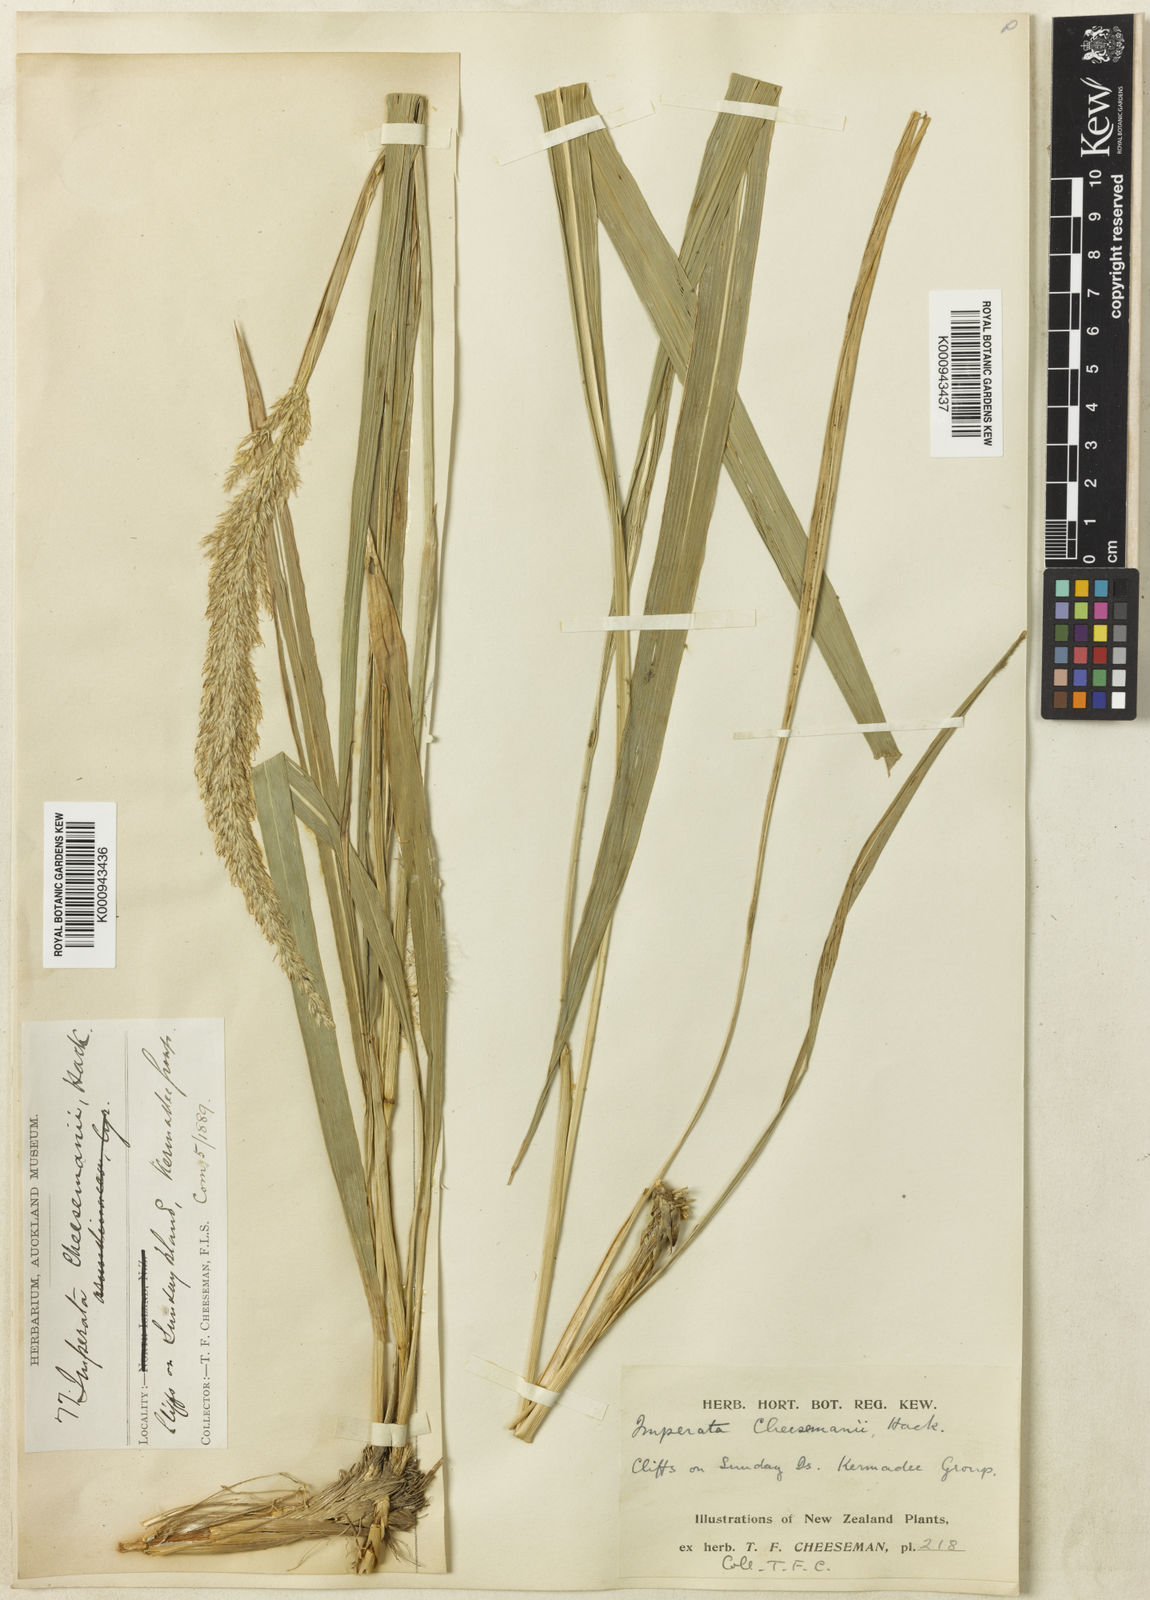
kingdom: Plantae
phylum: Tracheophyta
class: Liliopsida
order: Poales
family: Poaceae
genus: Imperata
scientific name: Imperata cheesemanii
